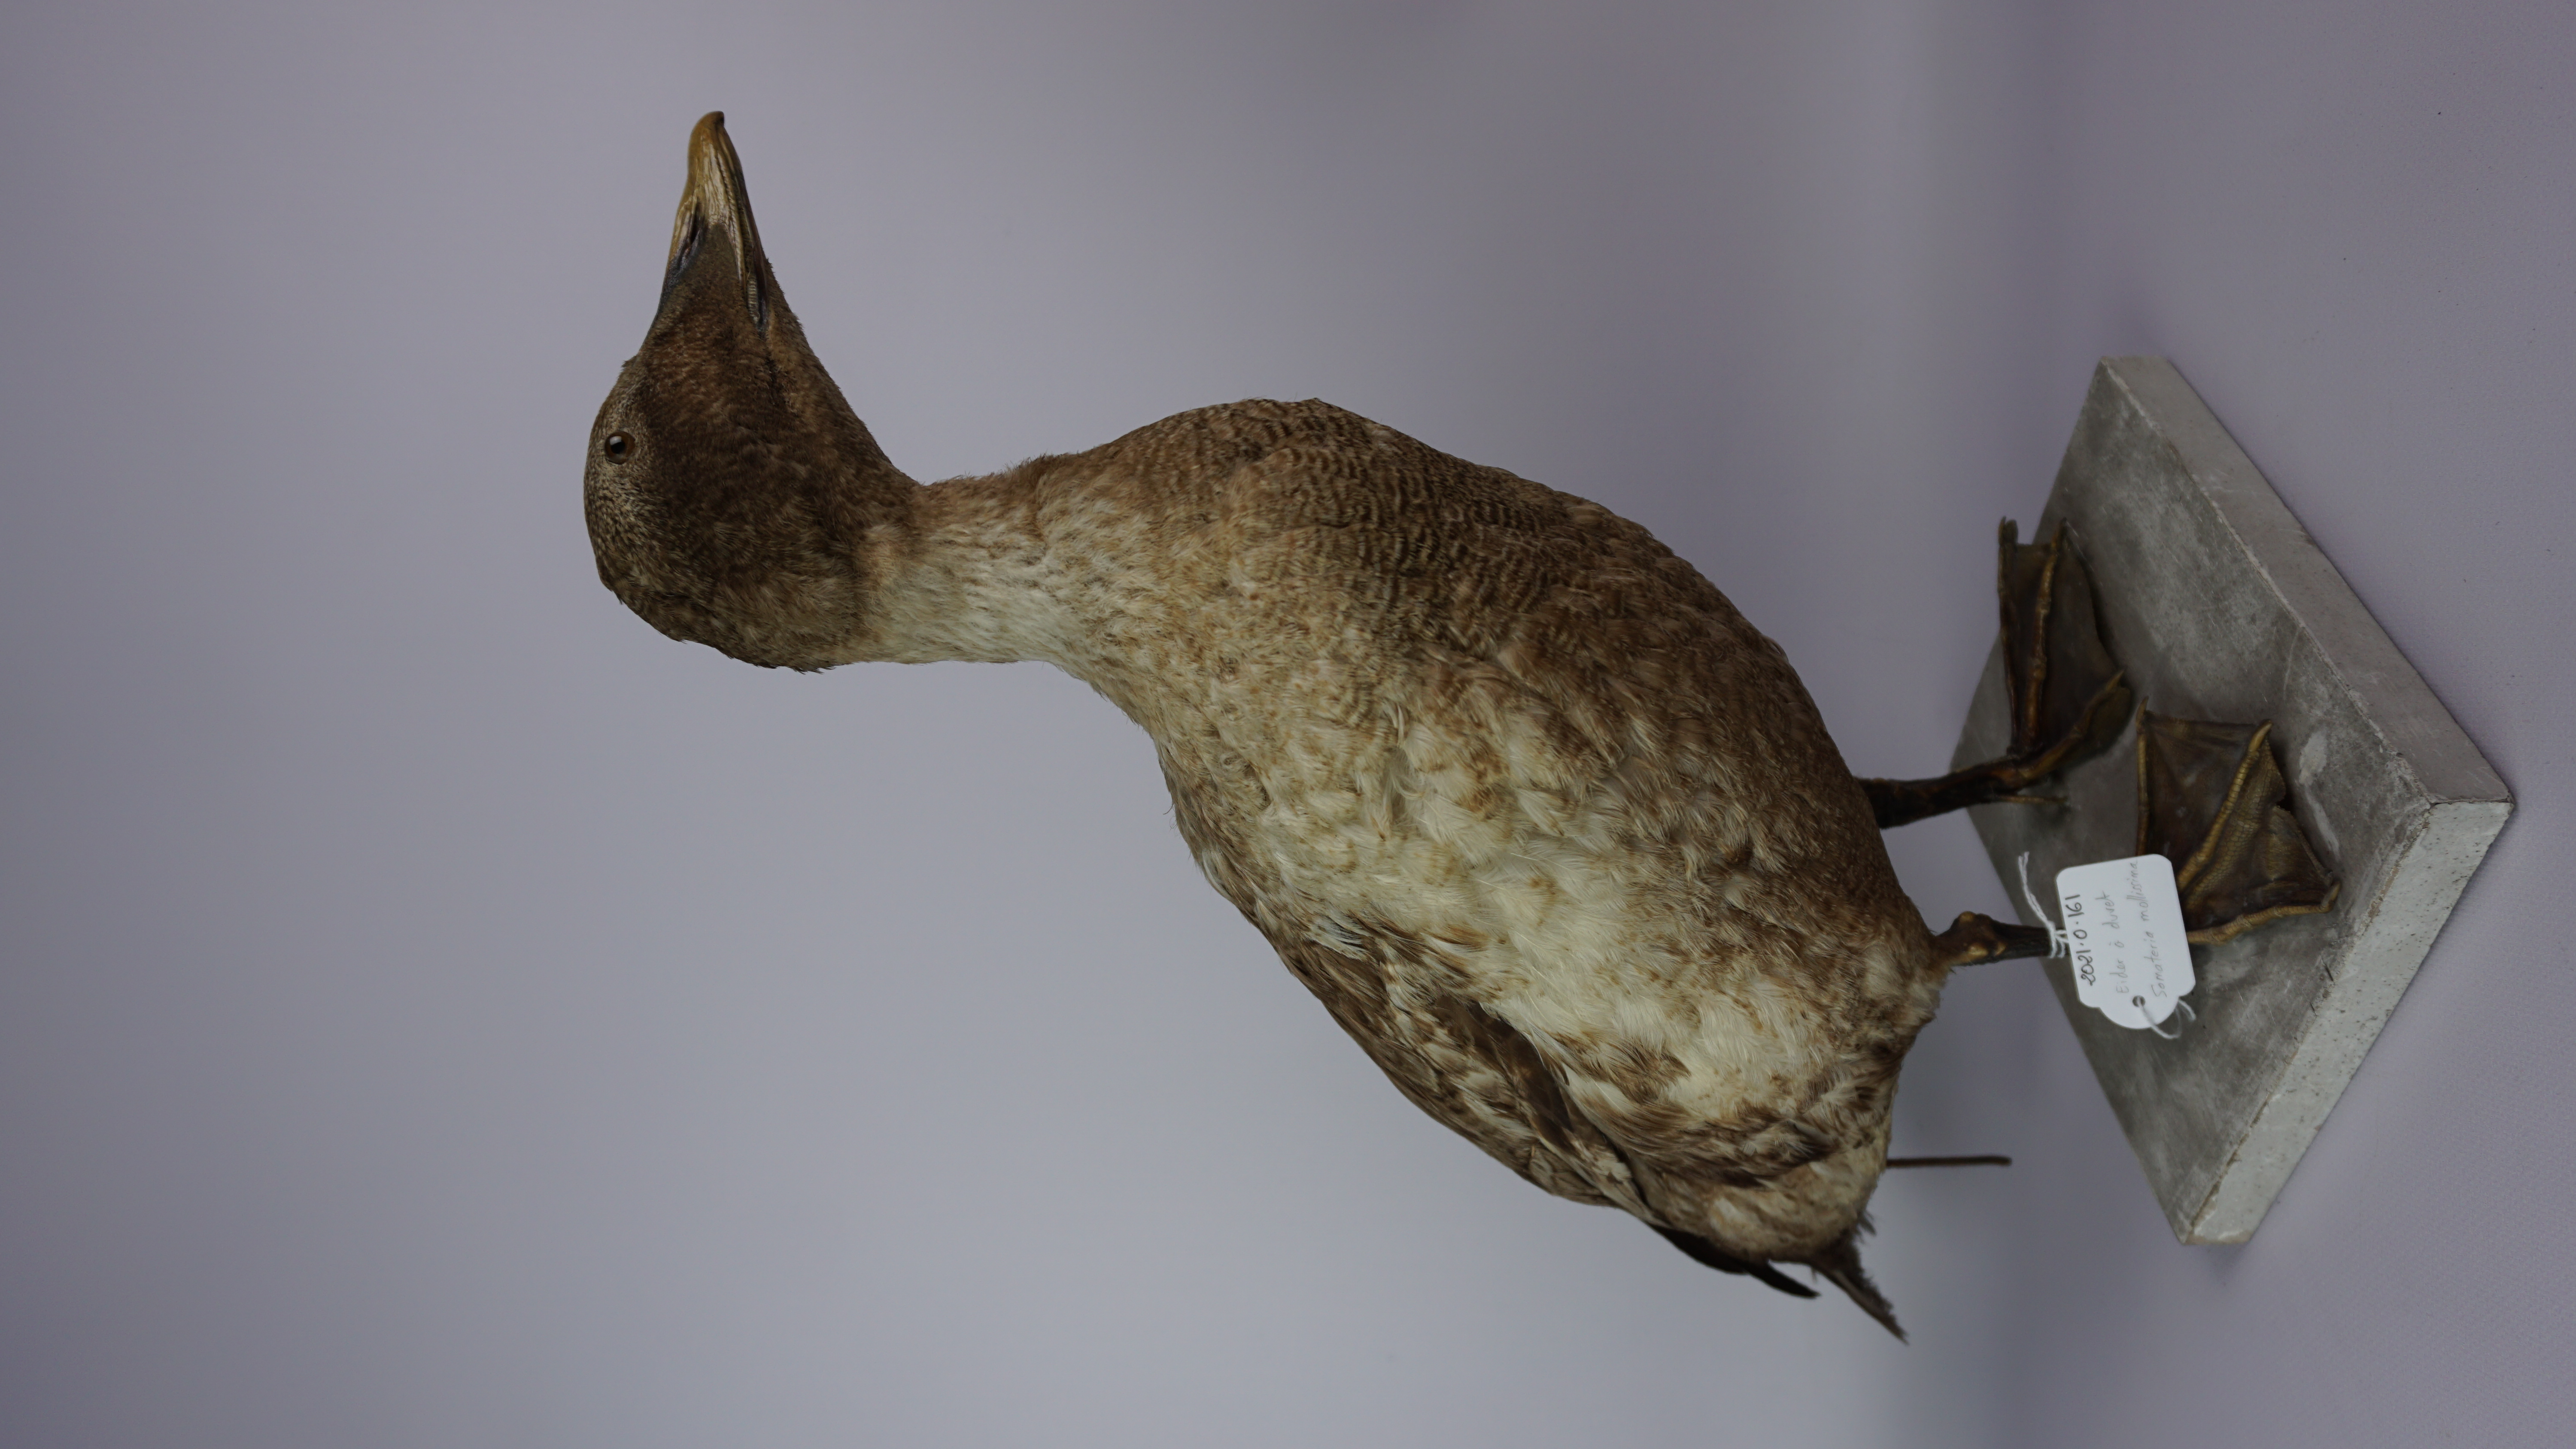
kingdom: Animalia
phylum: Chordata
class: Aves
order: Anseriformes
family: Anatidae
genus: Somateria
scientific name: Somateria mollissima
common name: Common eider
